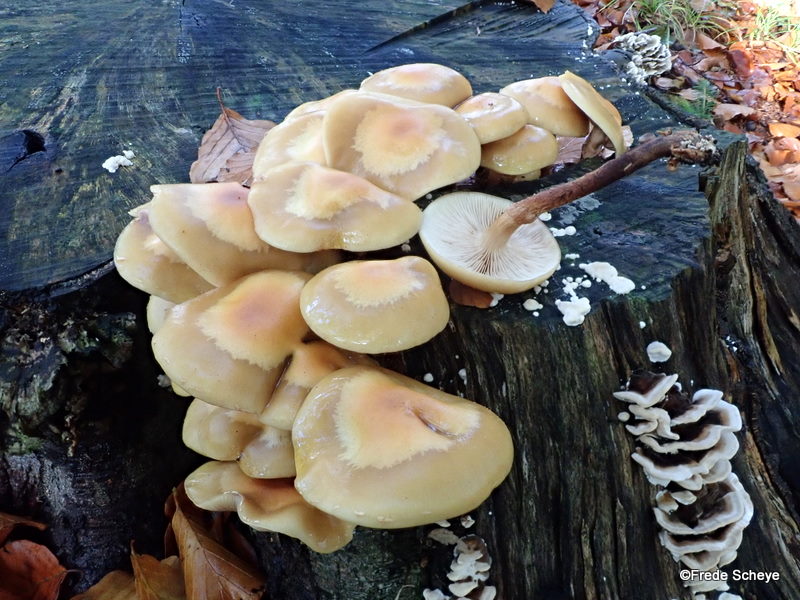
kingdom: Fungi
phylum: Basidiomycota
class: Agaricomycetes
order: Agaricales
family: Strophariaceae
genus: Kuehneromyces
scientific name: Kuehneromyces mutabilis
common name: foranderlig skælhat
